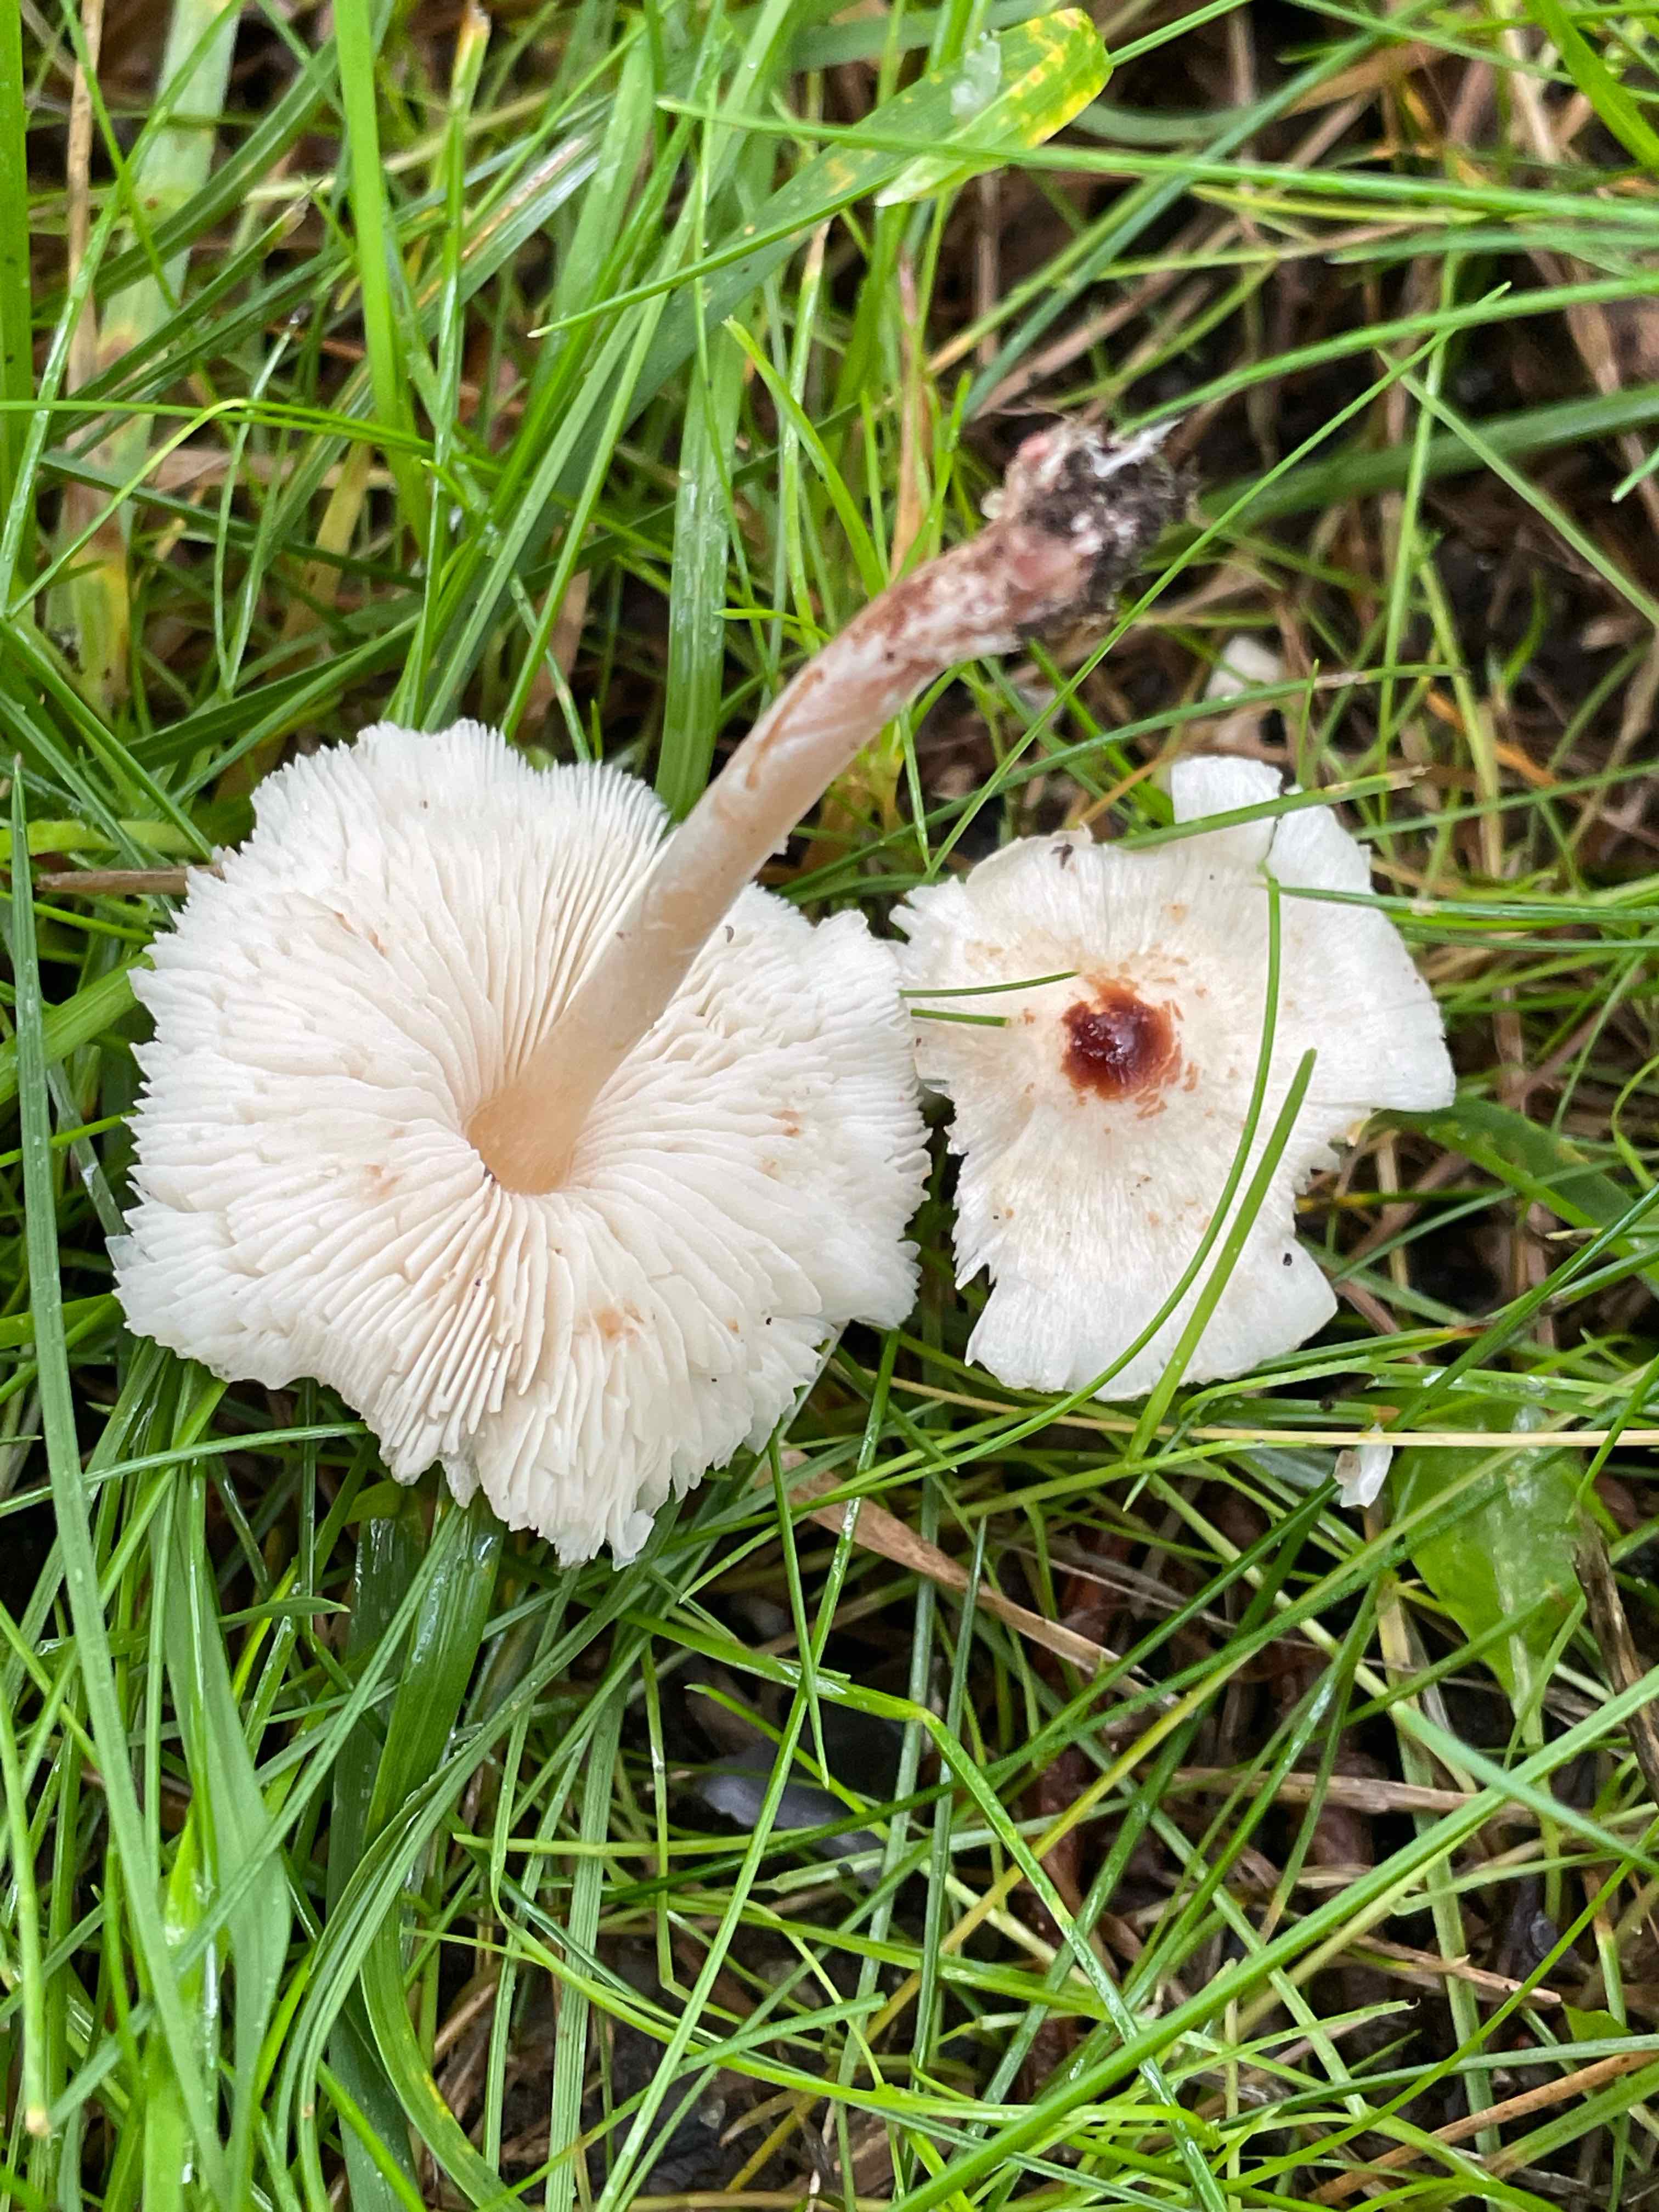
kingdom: Fungi
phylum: Basidiomycota
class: Agaricomycetes
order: Agaricales
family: Agaricaceae
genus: Lepiota
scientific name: Lepiota cristata
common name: stinkende parasolhat
